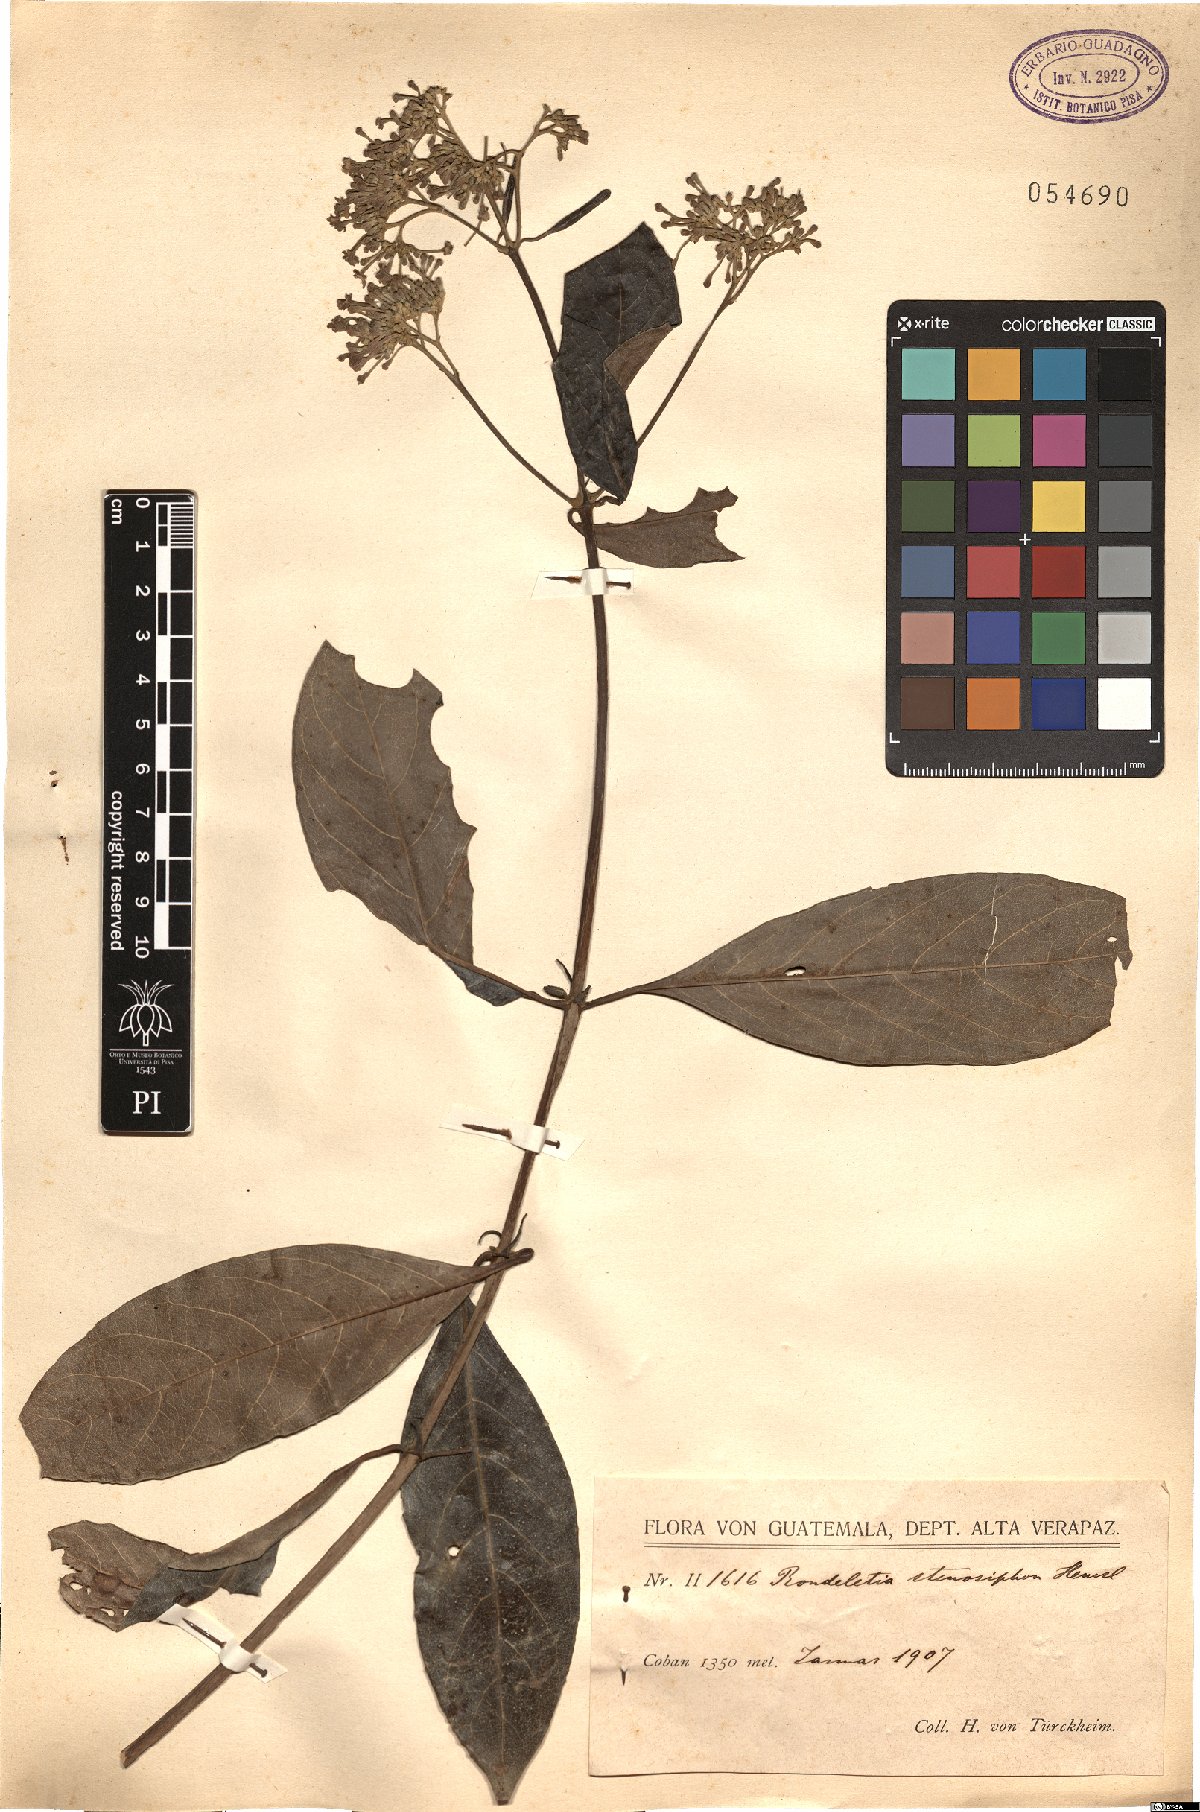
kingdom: Plantae
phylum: Tracheophyta
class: Magnoliopsida
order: Gentianales
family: Rubiaceae
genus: Rogiera
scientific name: Rogiera stenosiphon
